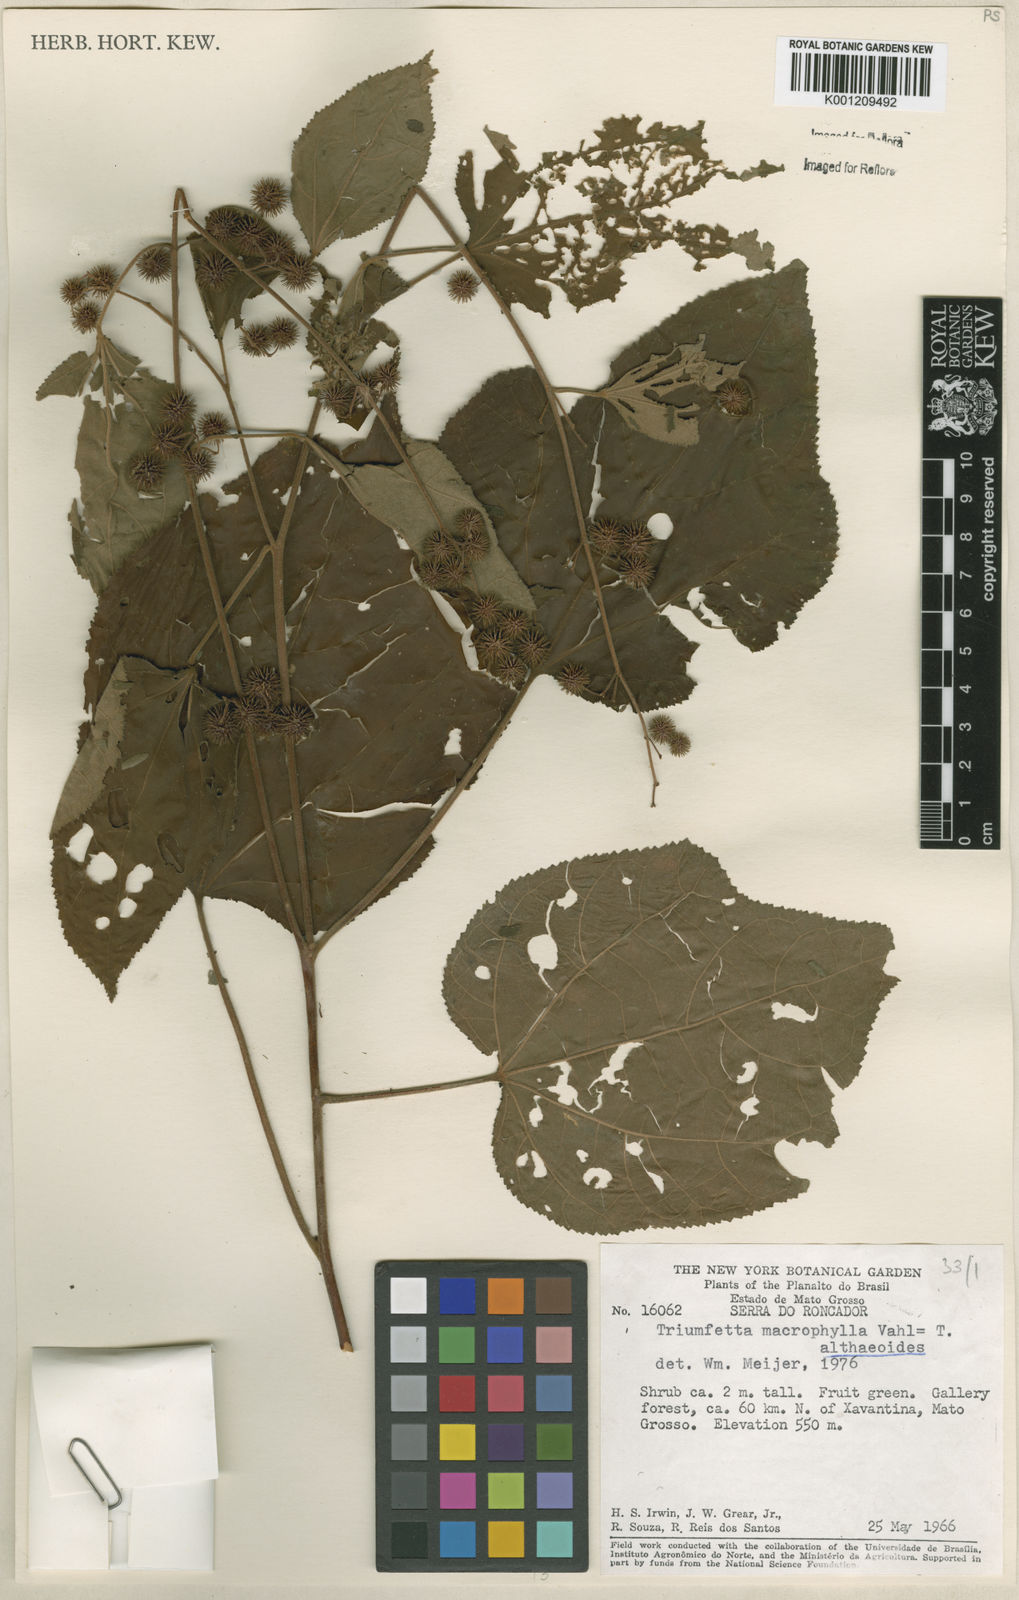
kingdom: Plantae
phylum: Tracheophyta
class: Magnoliopsida
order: Malvales
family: Malvaceae
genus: Triumfetta
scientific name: Triumfetta althaeoides
